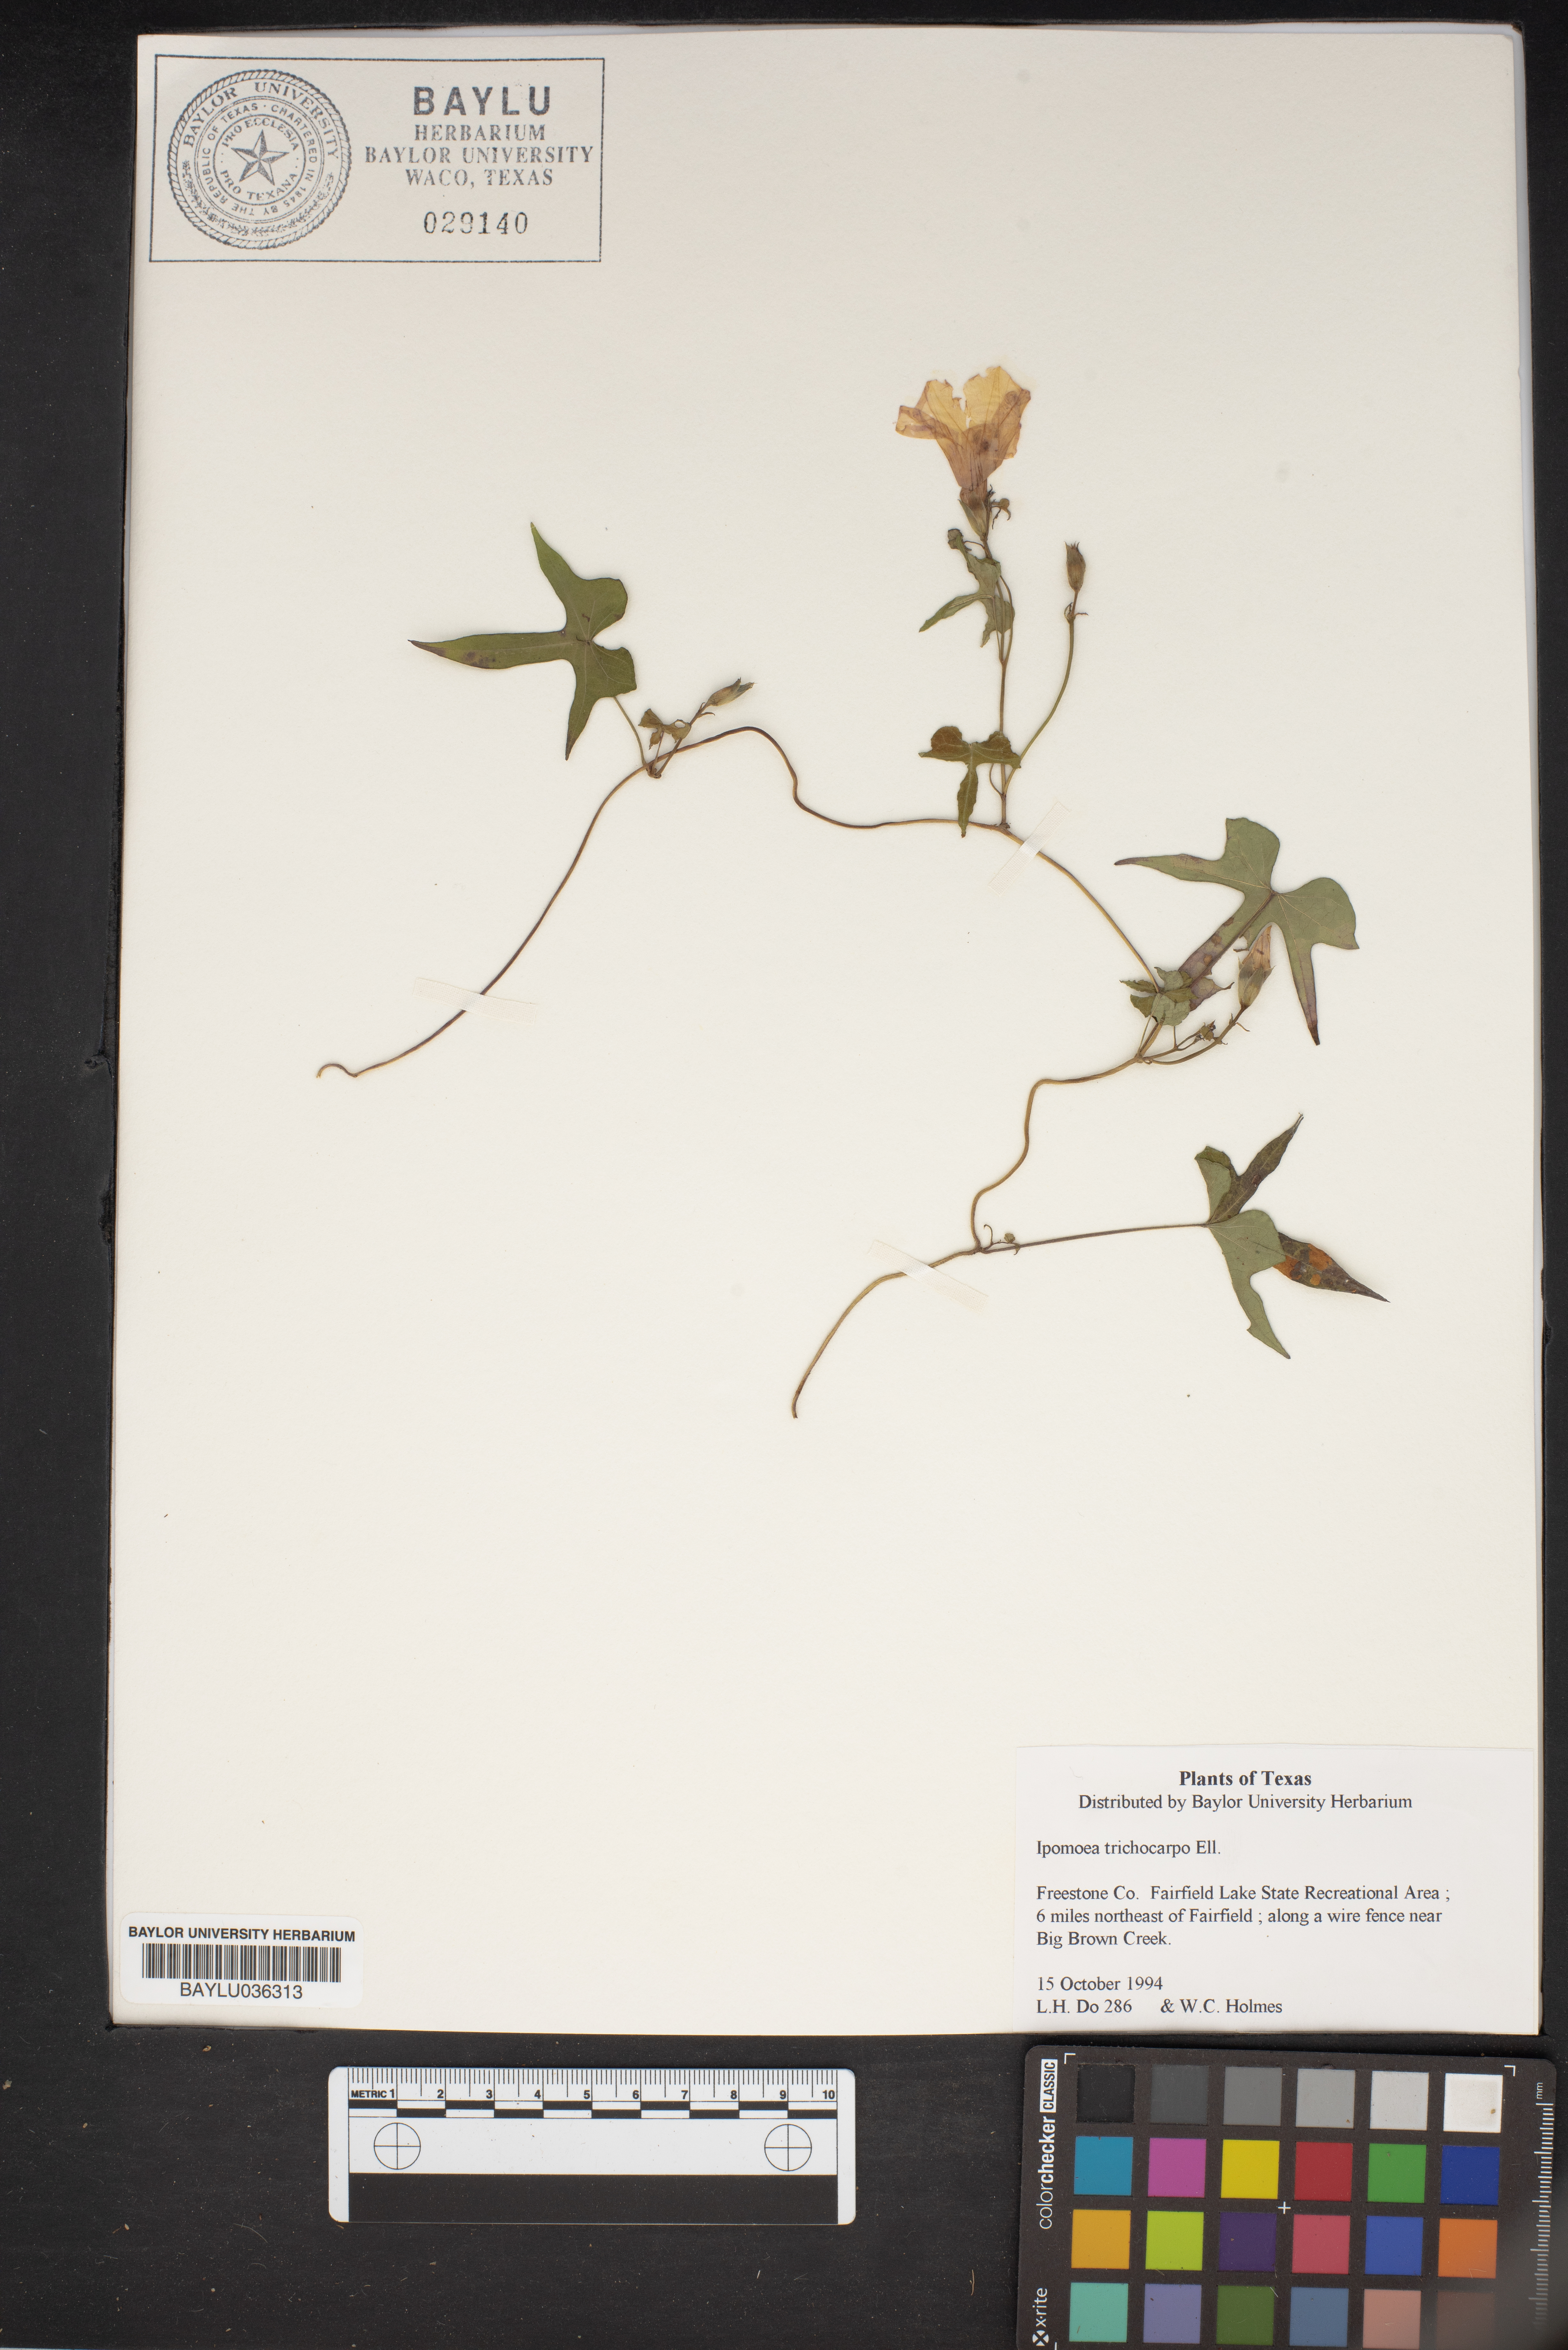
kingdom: Plantae
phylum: Tracheophyta
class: Magnoliopsida
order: Solanales
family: Convolvulaceae
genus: Ipomoea
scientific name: Ipomoea cordatotriloba
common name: Cotton morning glory
